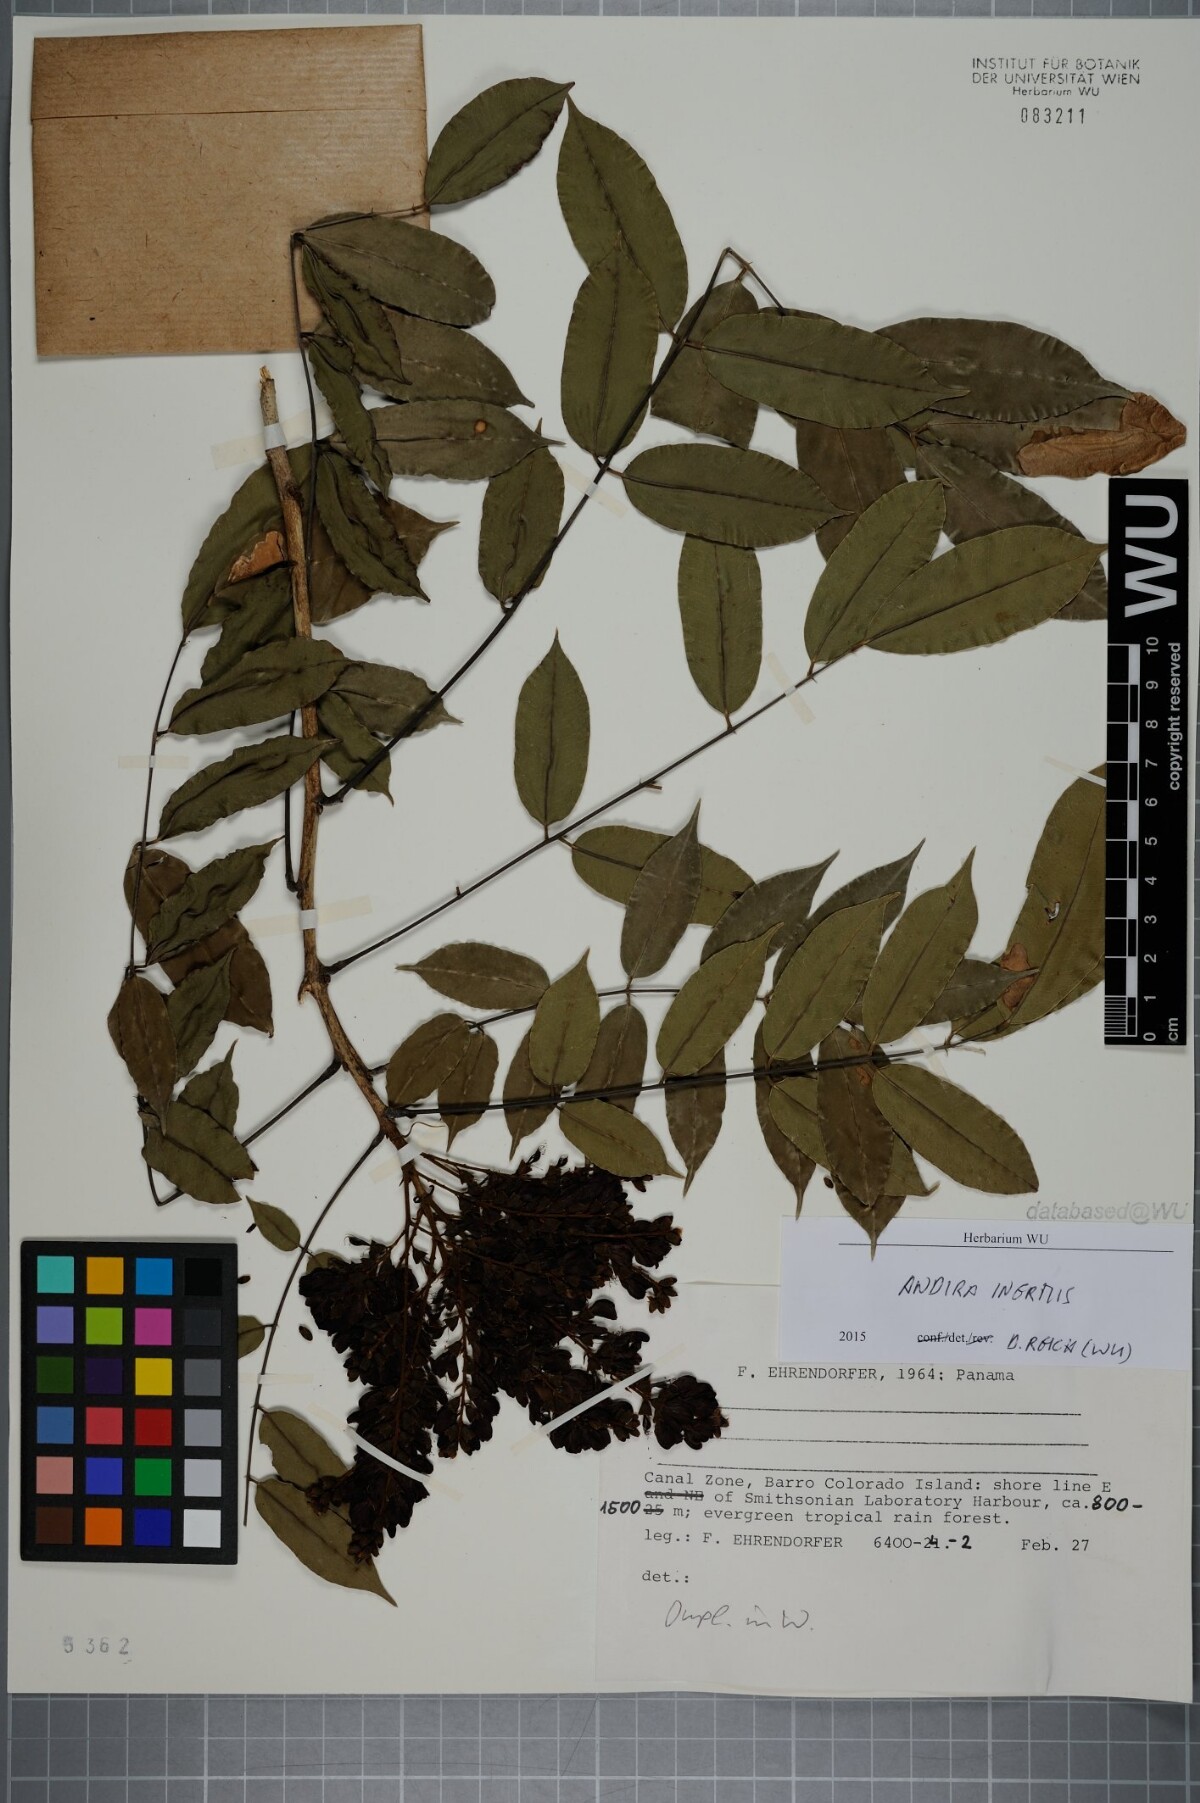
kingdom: Plantae
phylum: Tracheophyta
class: Magnoliopsida
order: Fabales
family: Fabaceae
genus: Andira
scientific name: Andira inermis
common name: Angelin
